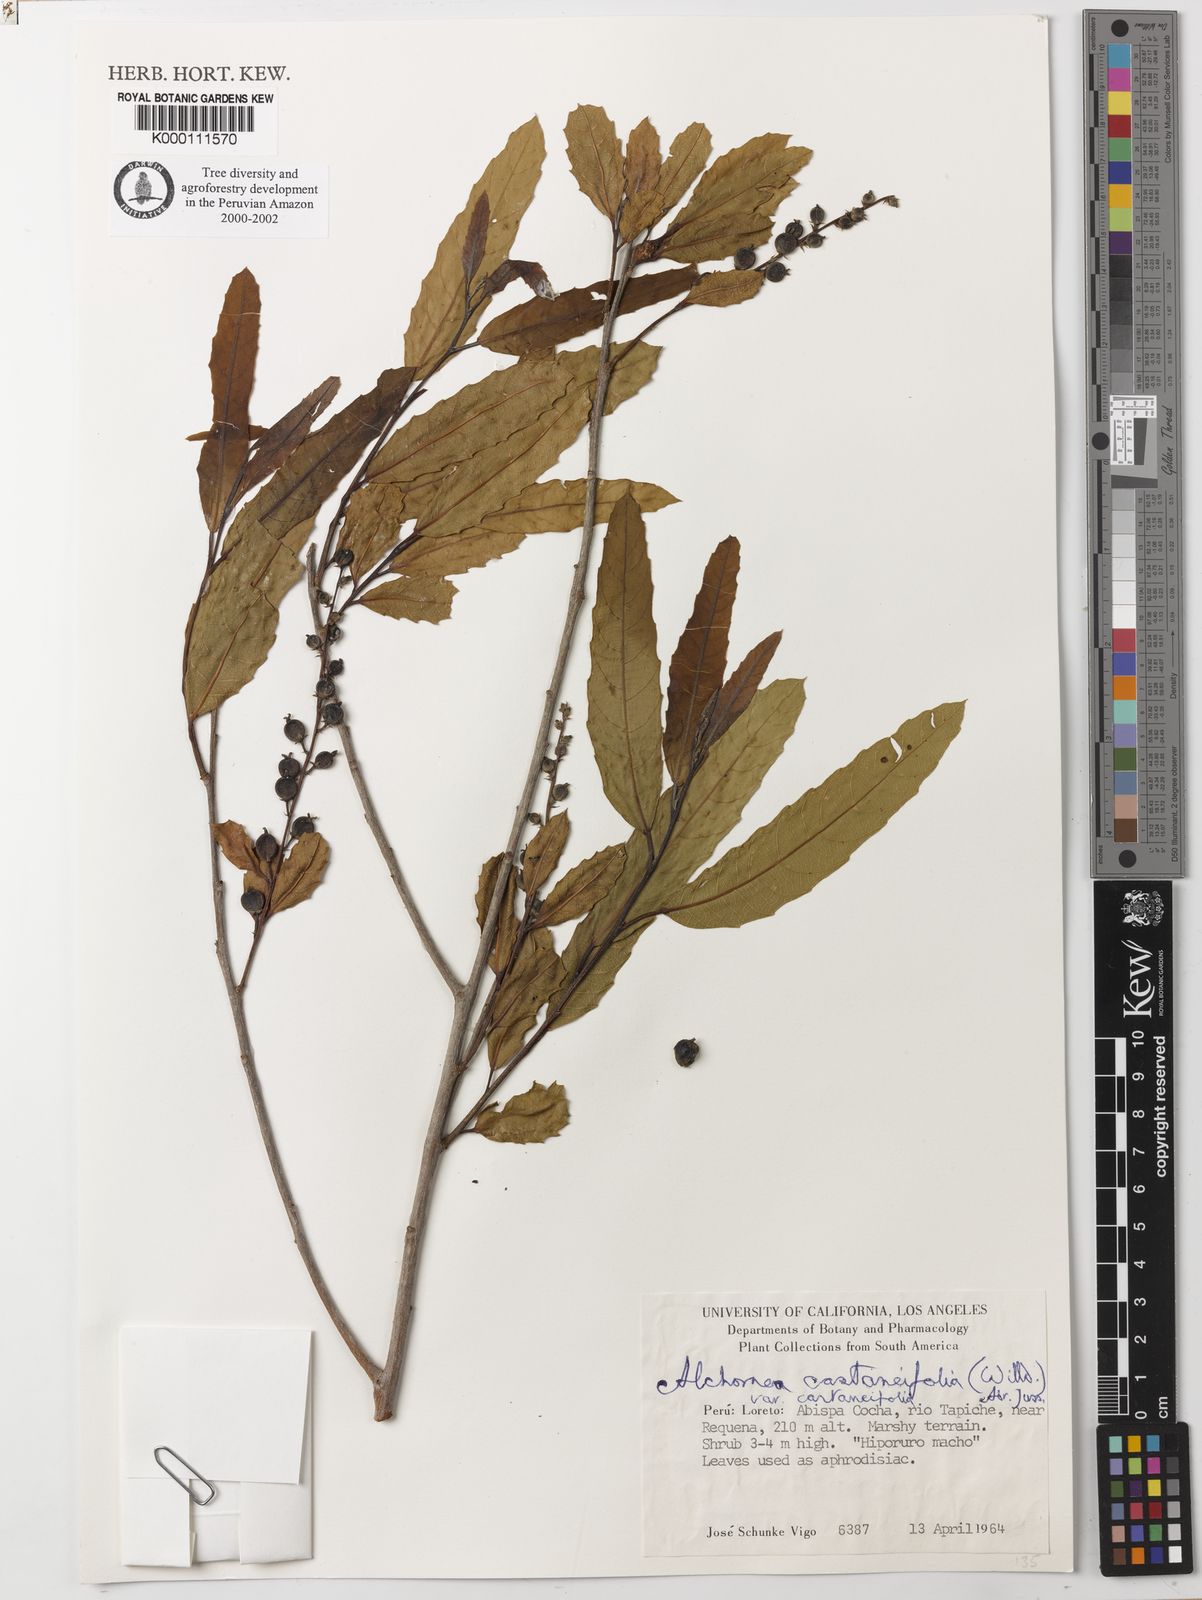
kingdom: Plantae
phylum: Tracheophyta
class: Magnoliopsida
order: Malpighiales
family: Euphorbiaceae
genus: Alchornea
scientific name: Alchornea castaneifolia
